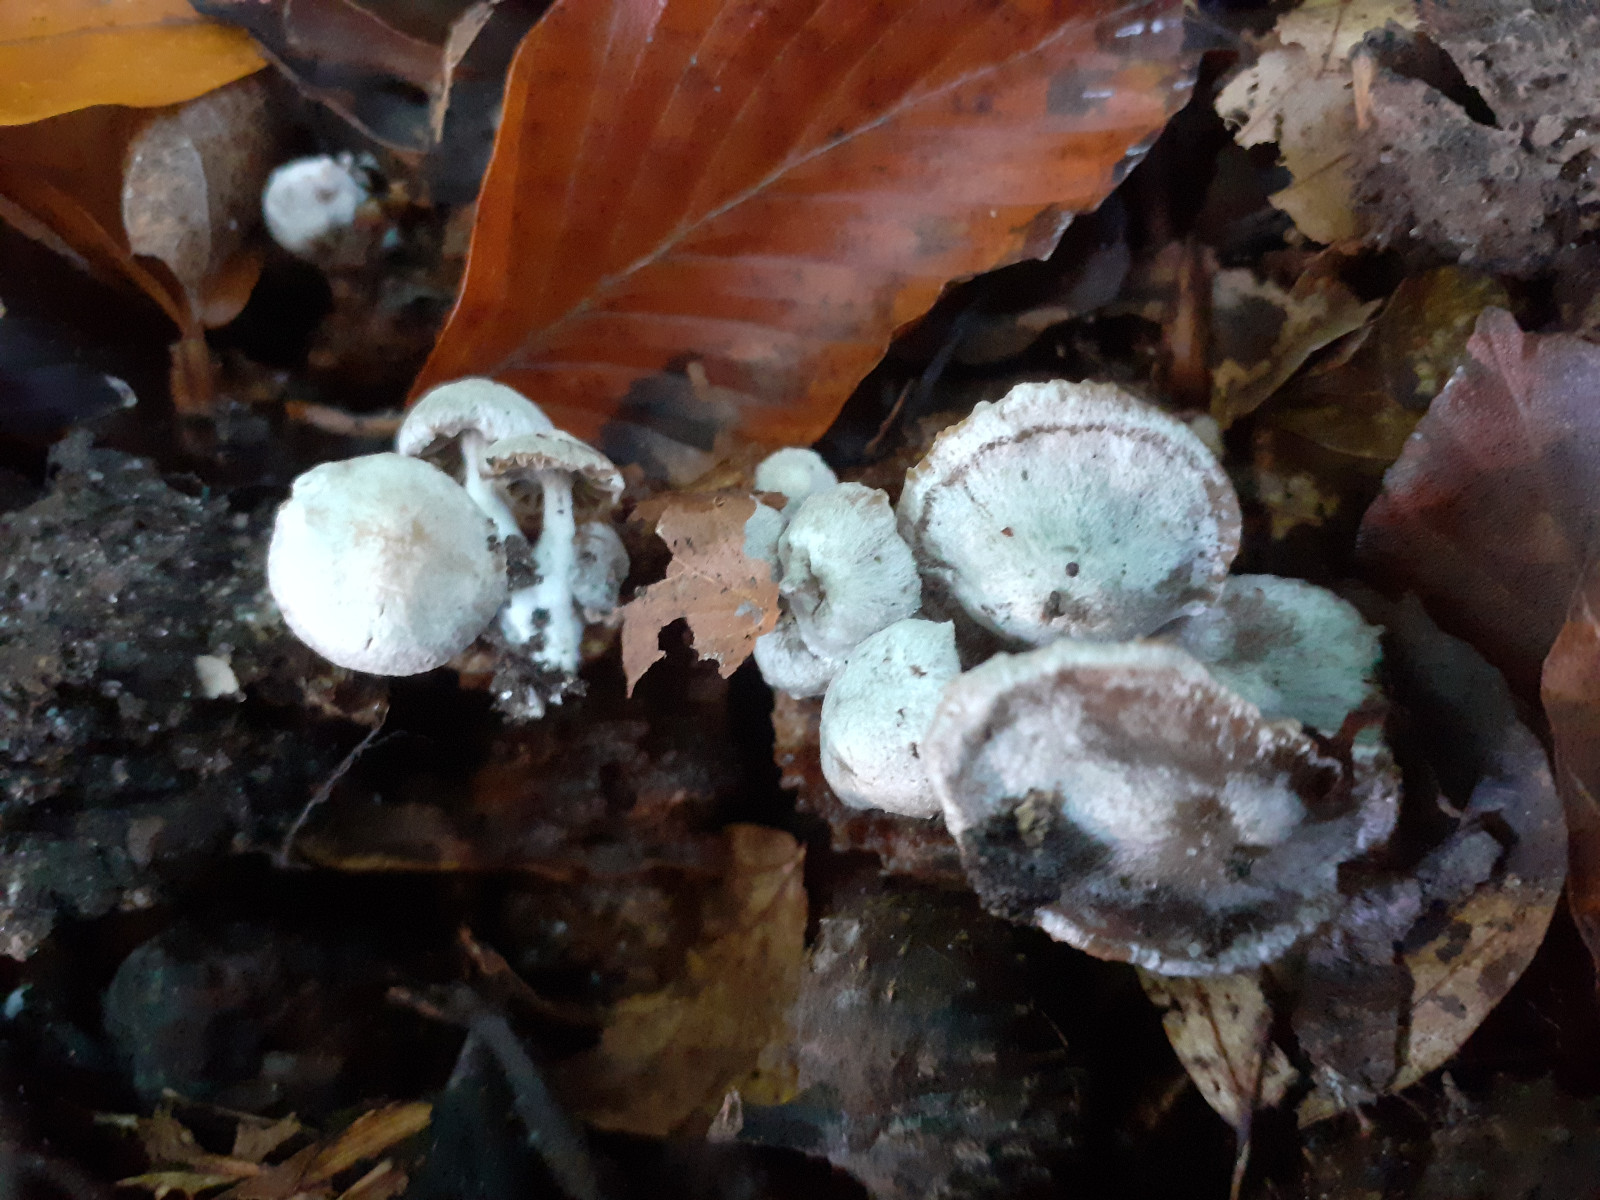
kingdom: Fungi
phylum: Basidiomycota
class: Agaricomycetes
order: Agaricales
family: Lyophyllaceae
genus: Asterophora
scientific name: Asterophora parasitica
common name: grå snyltehat
